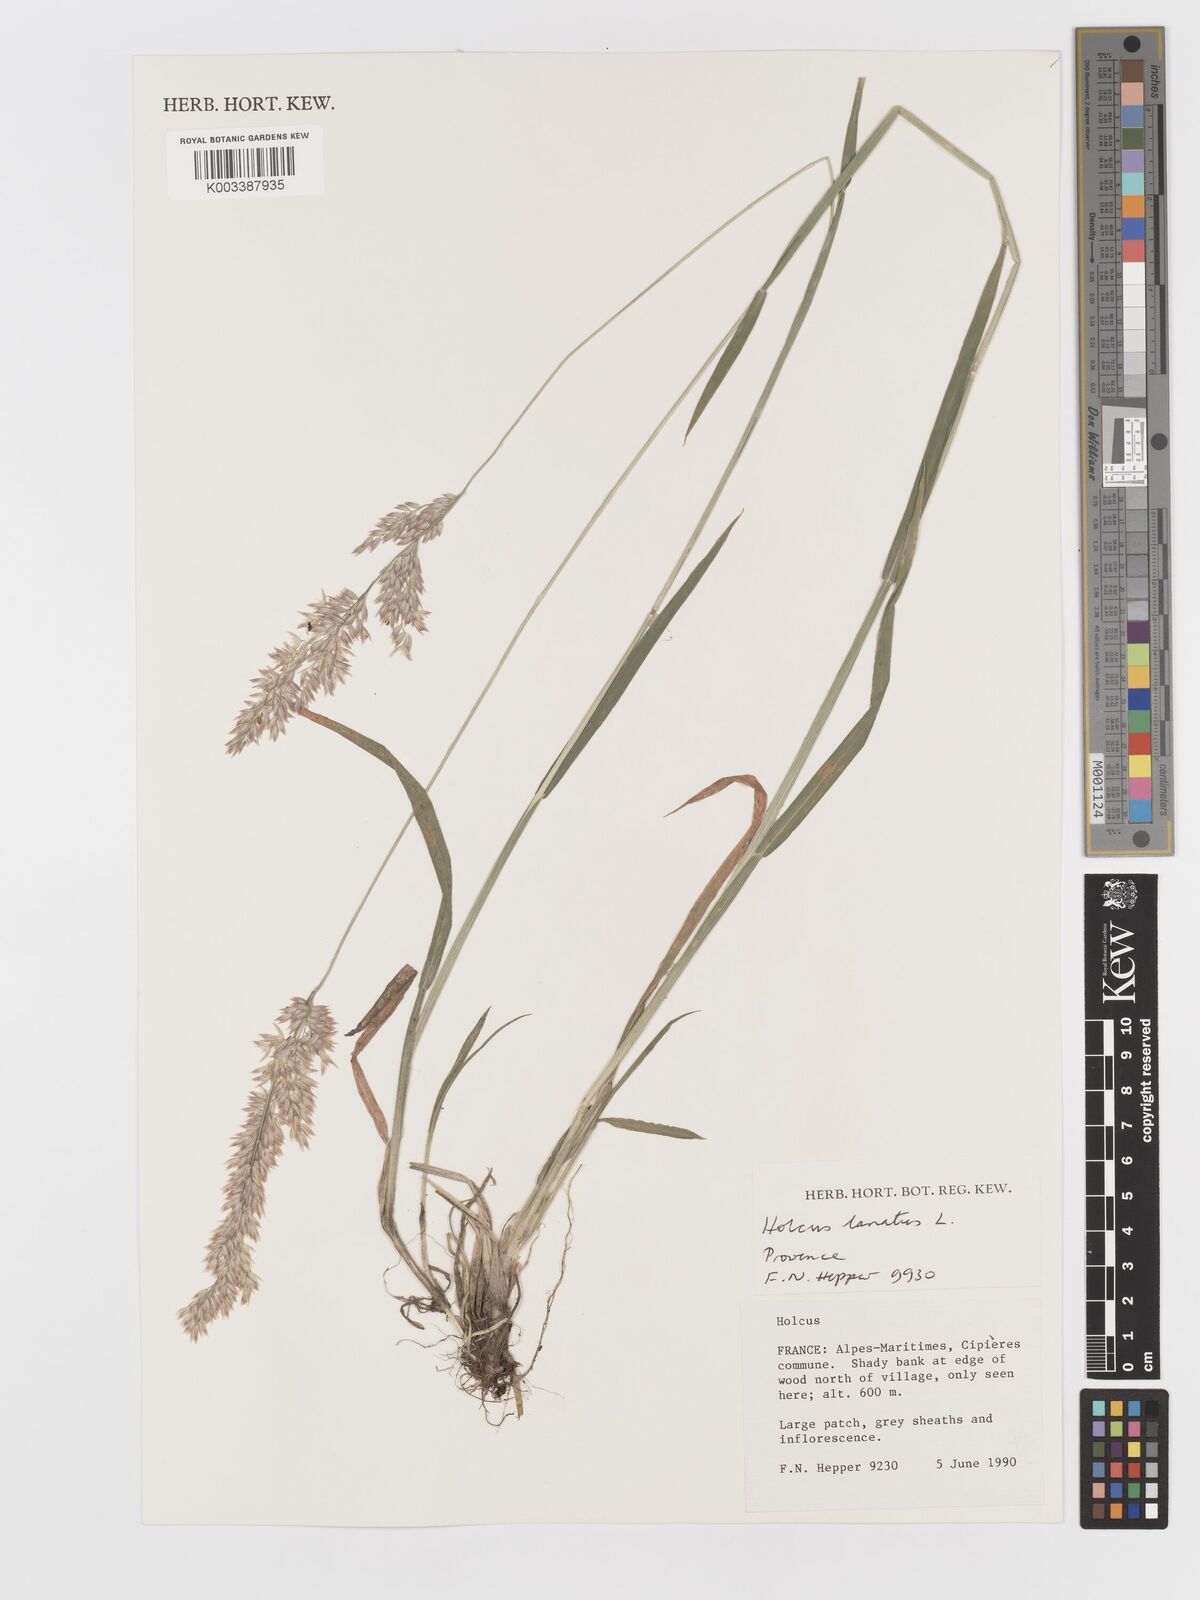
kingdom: Plantae
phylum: Tracheophyta
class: Liliopsida
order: Poales
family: Poaceae
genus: Holcus
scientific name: Holcus lanatus
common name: Yorkshire-fog
